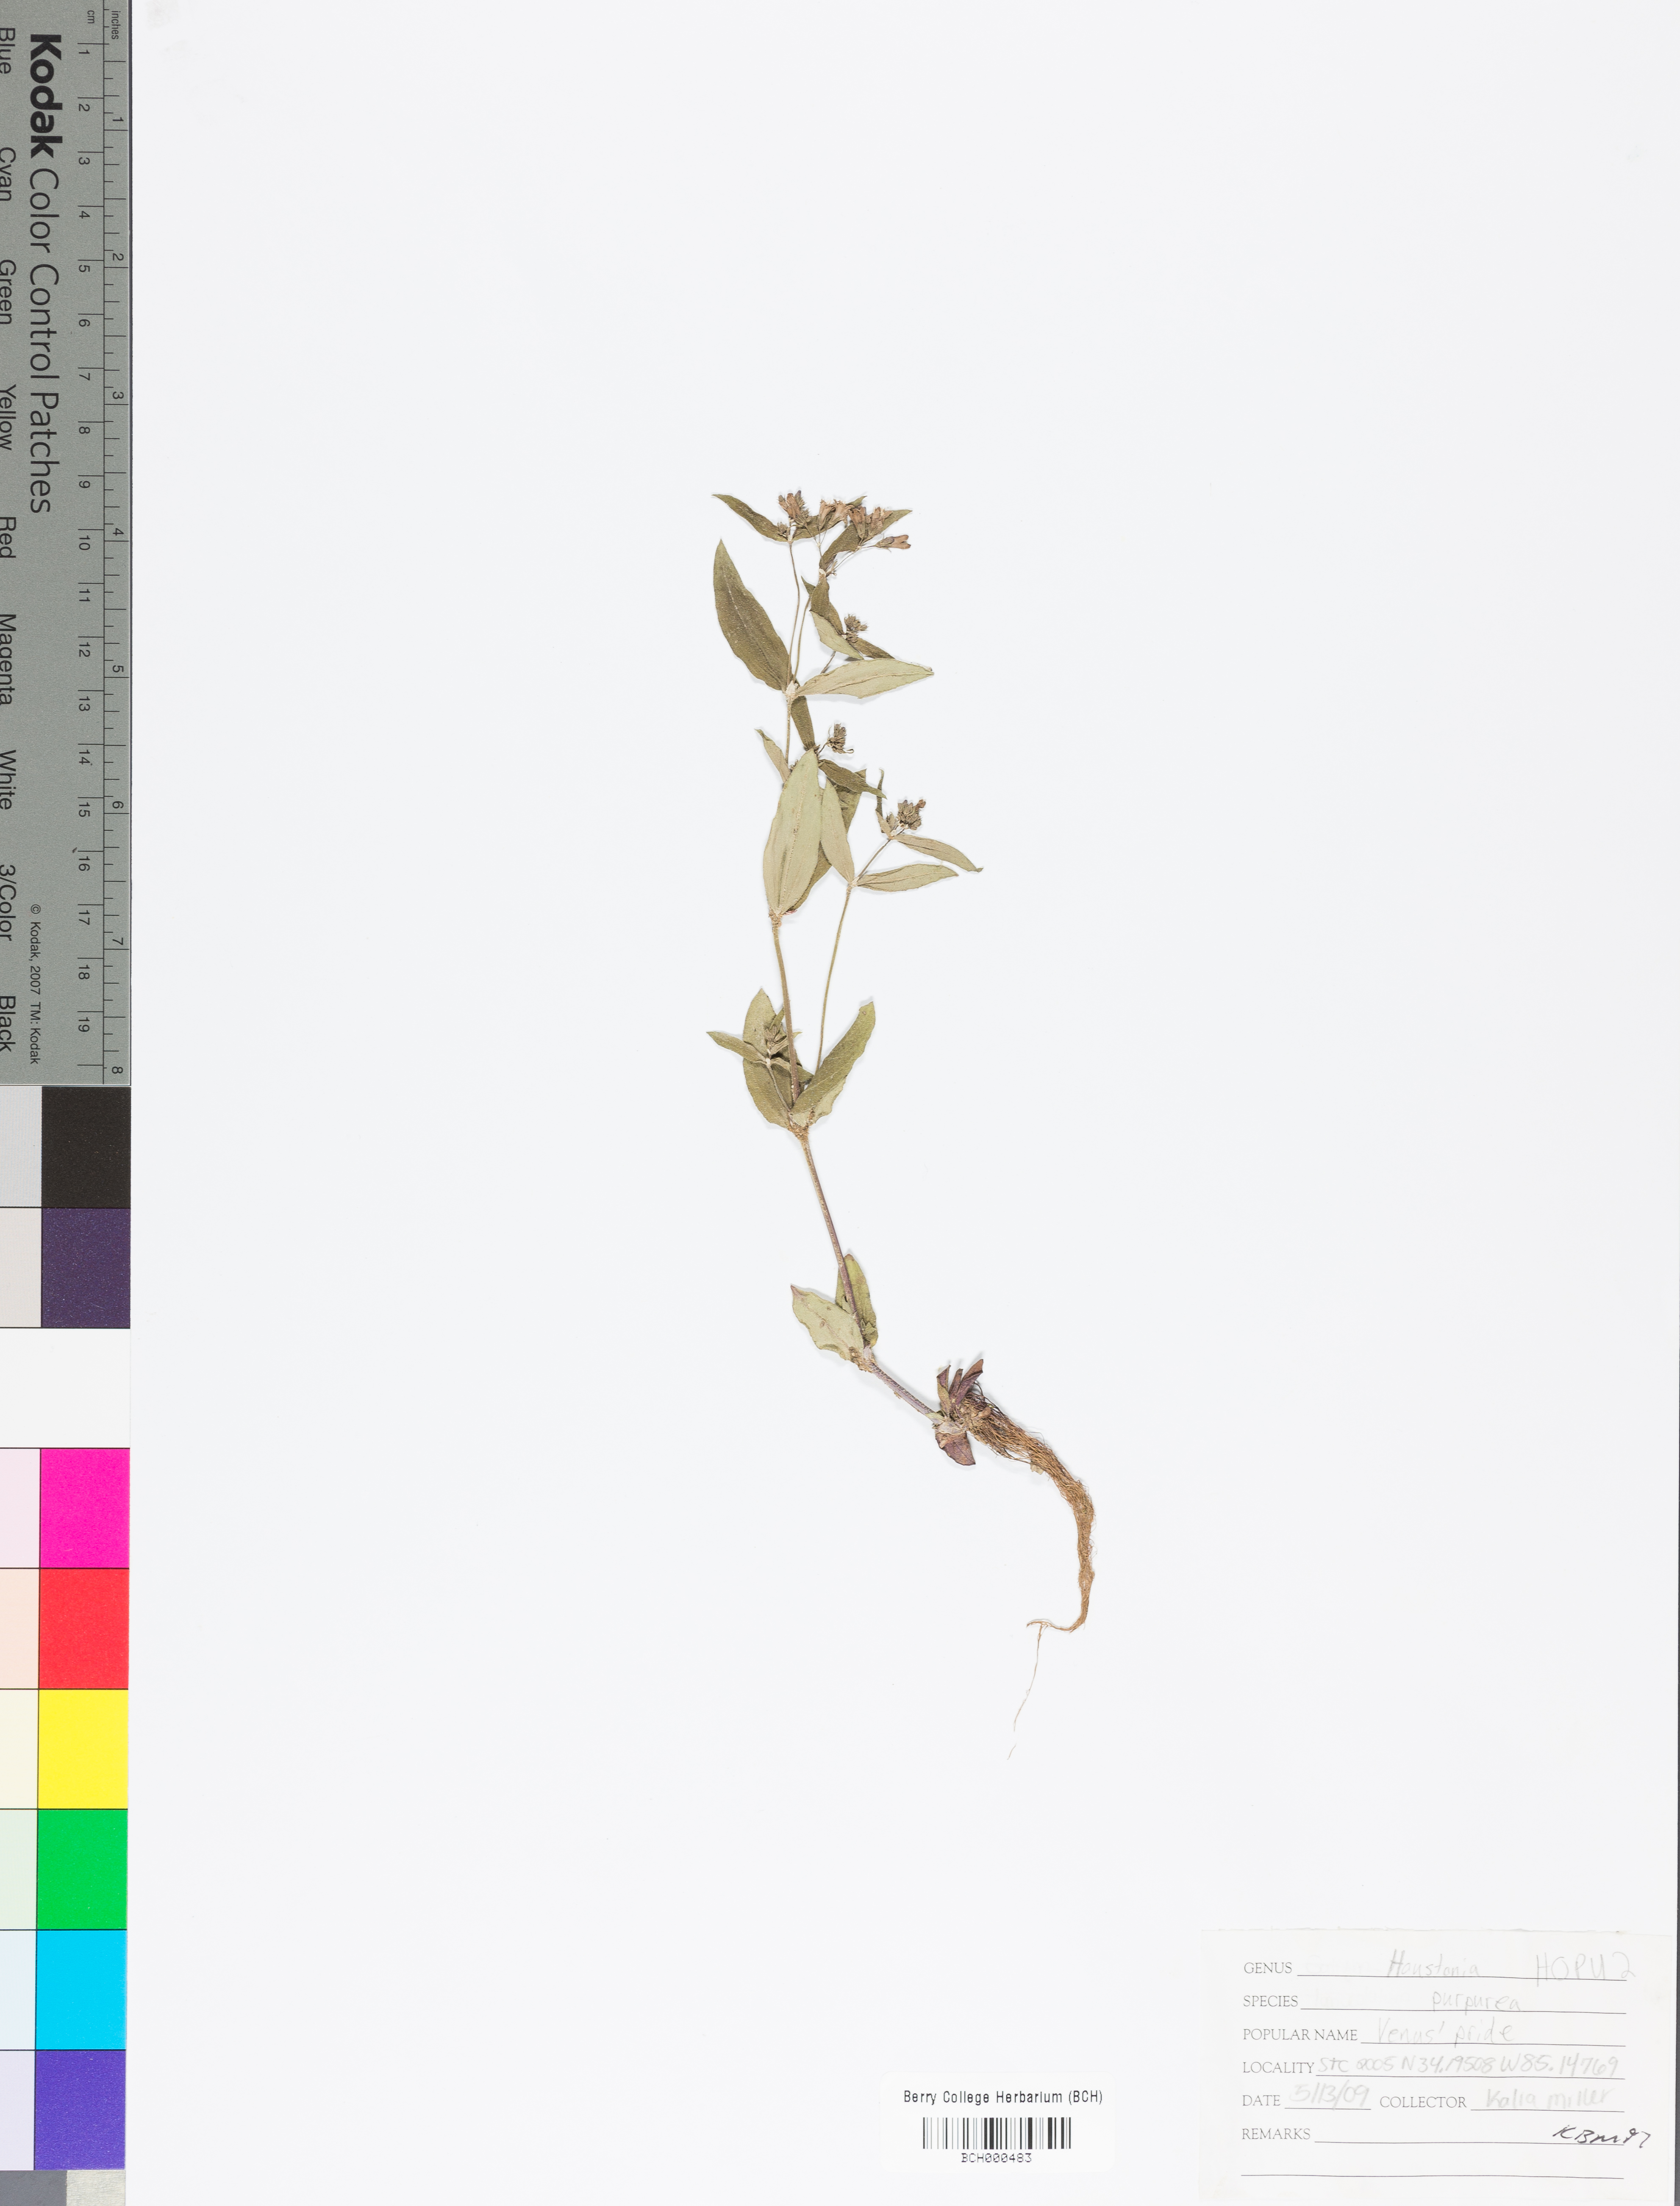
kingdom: Plantae
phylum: Tracheophyta
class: Magnoliopsida
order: Gentianales
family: Rubiaceae
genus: Houstonia
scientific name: Houstonia purpurea
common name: Summer bluet
